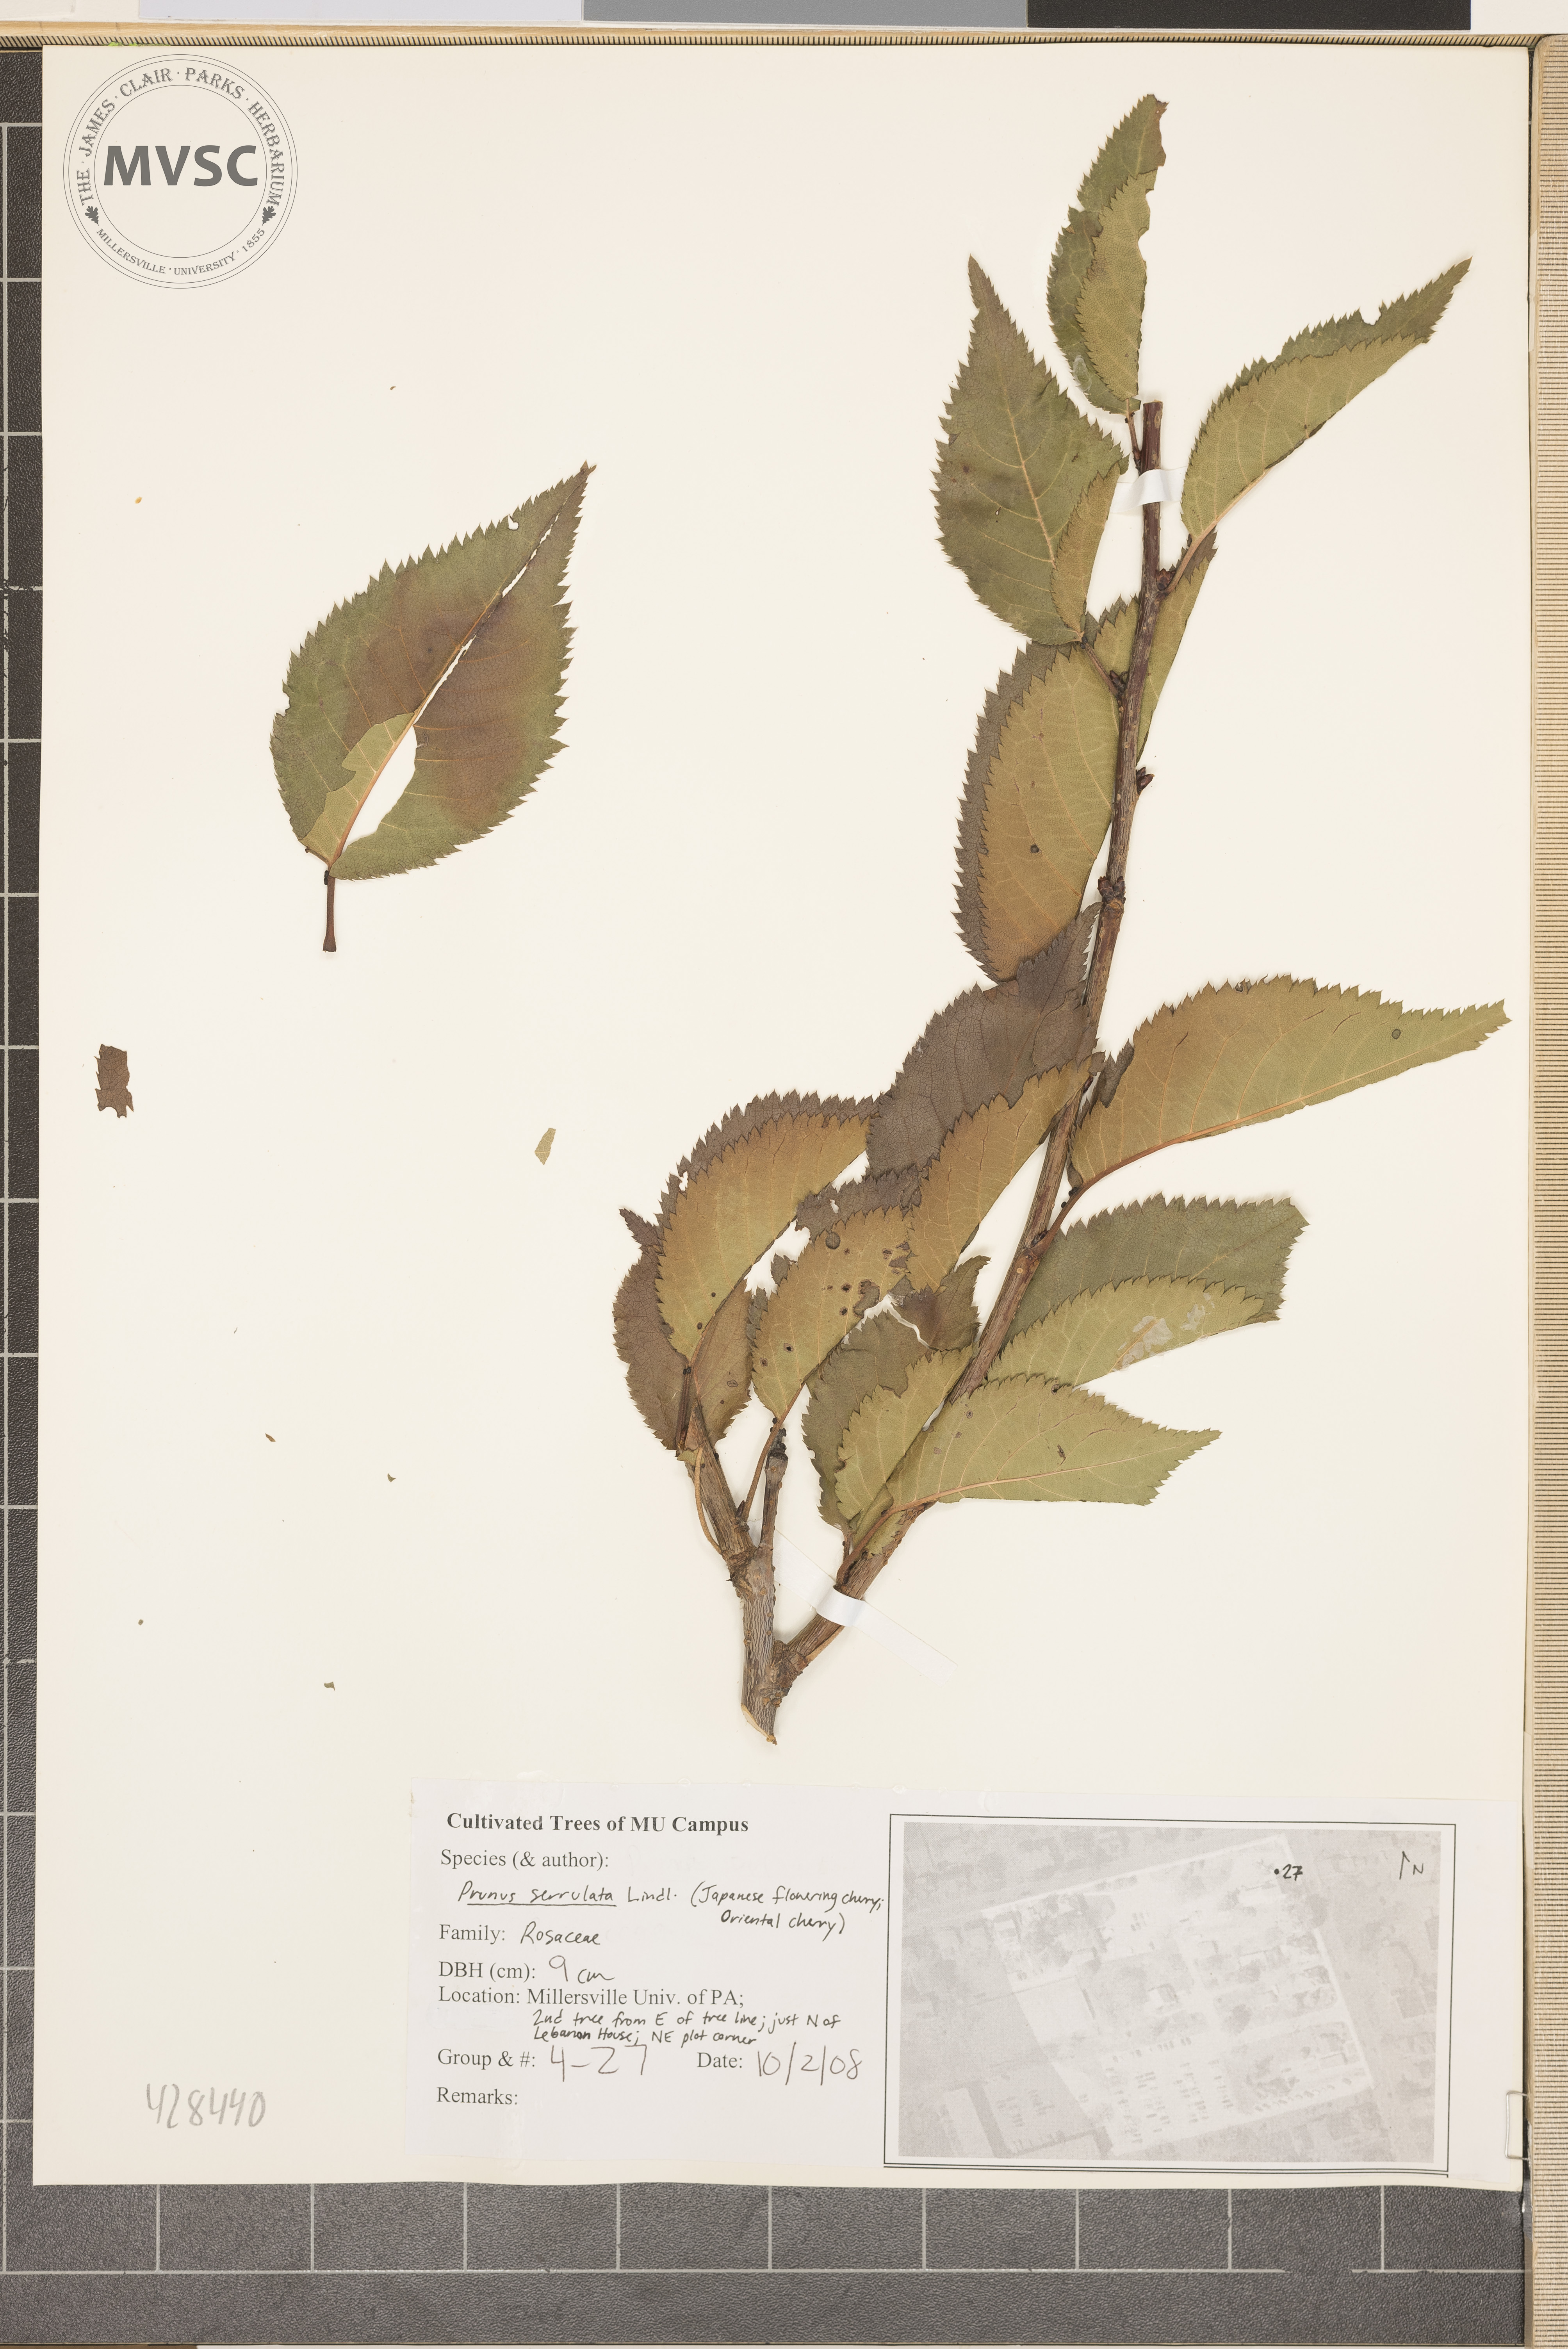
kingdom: Plantae
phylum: Tracheophyta
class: Magnoliopsida
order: Rosales
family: Rosaceae
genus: Prunus
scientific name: Prunus serrulata
